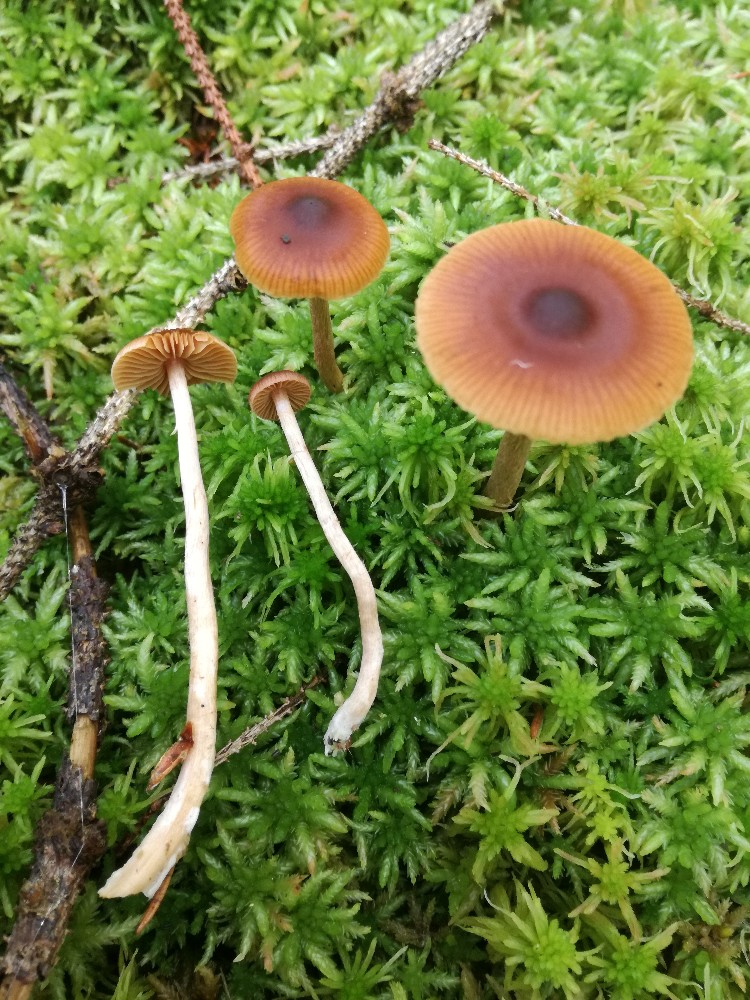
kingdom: Fungi
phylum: Basidiomycota
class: Agaricomycetes
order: Agaricales
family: Cortinariaceae
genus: Cortinarius
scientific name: Cortinarius
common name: ræve-slørhat
